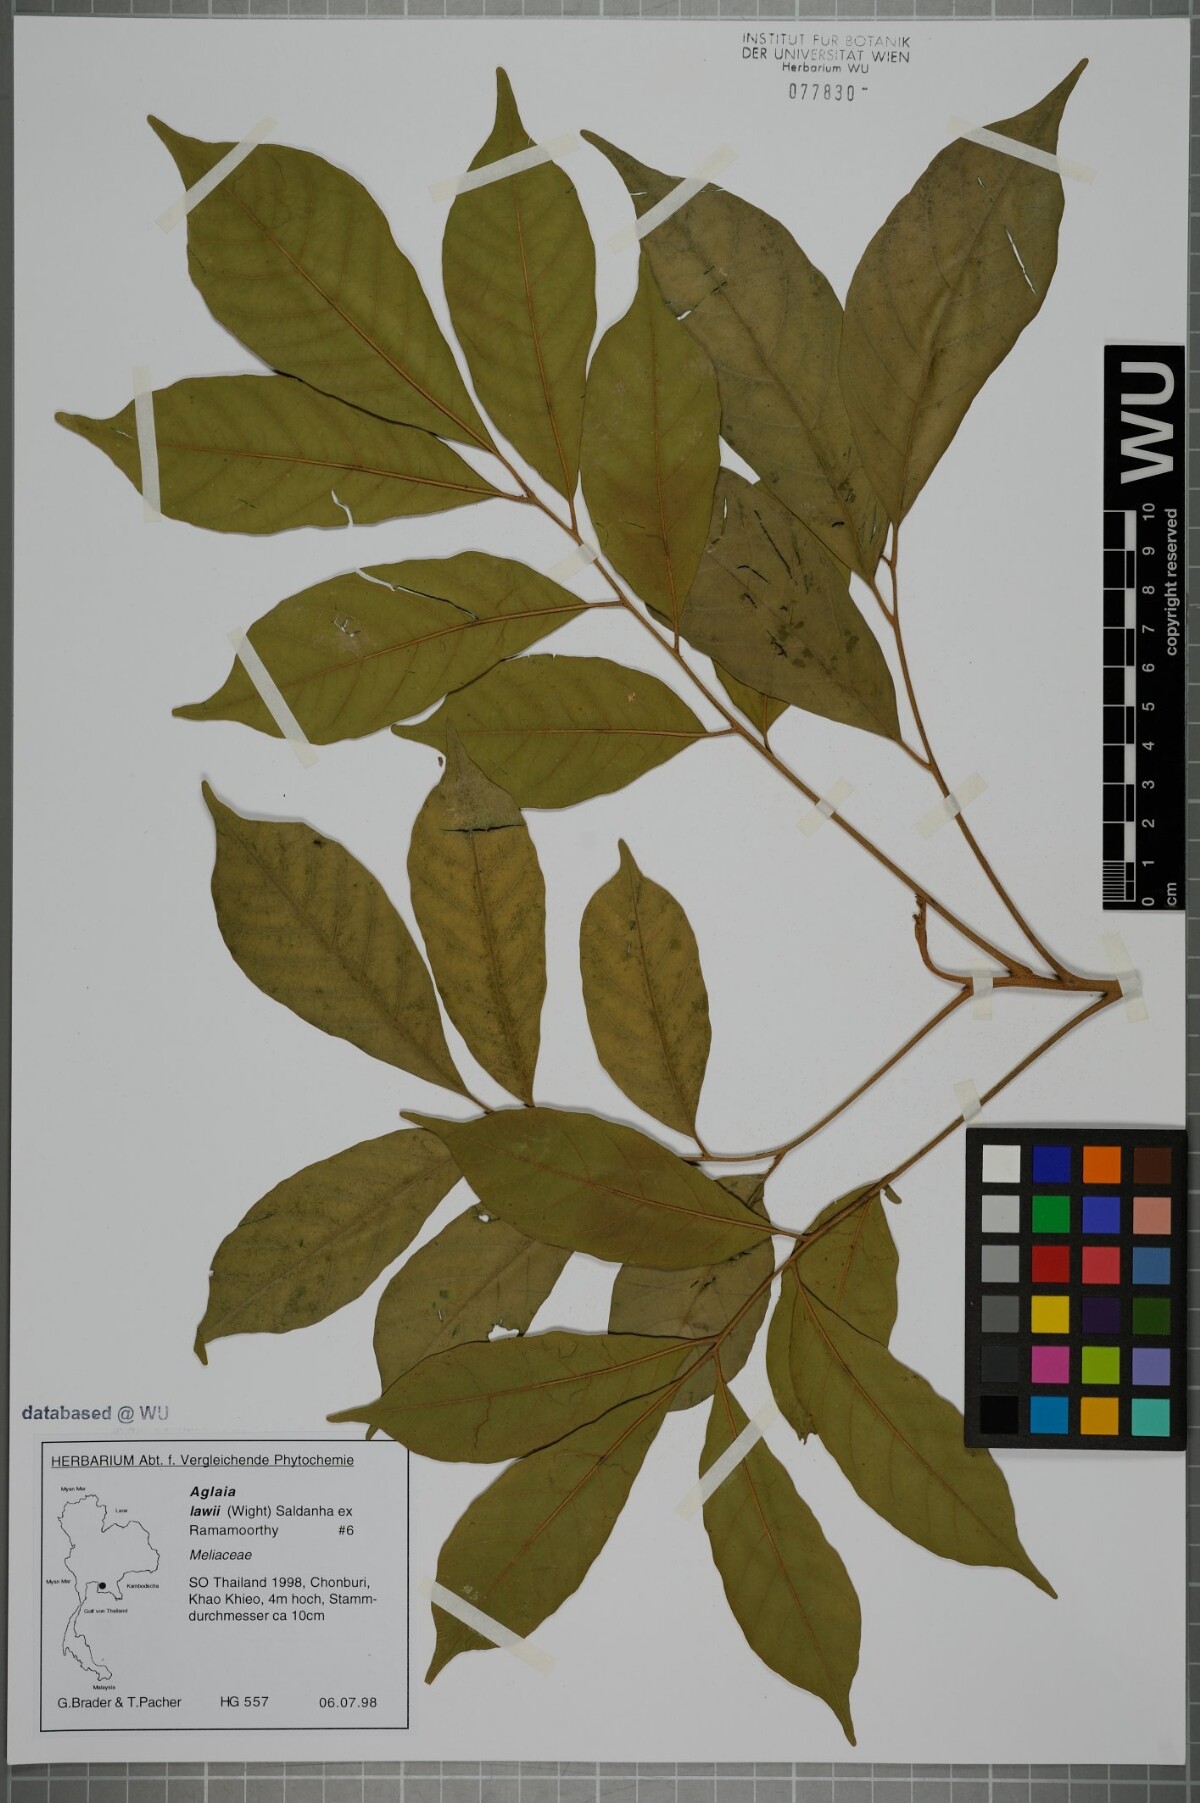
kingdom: Plantae
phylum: Tracheophyta
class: Magnoliopsida
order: Sapindales
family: Meliaceae
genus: Aglaia
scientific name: Aglaia lawii
